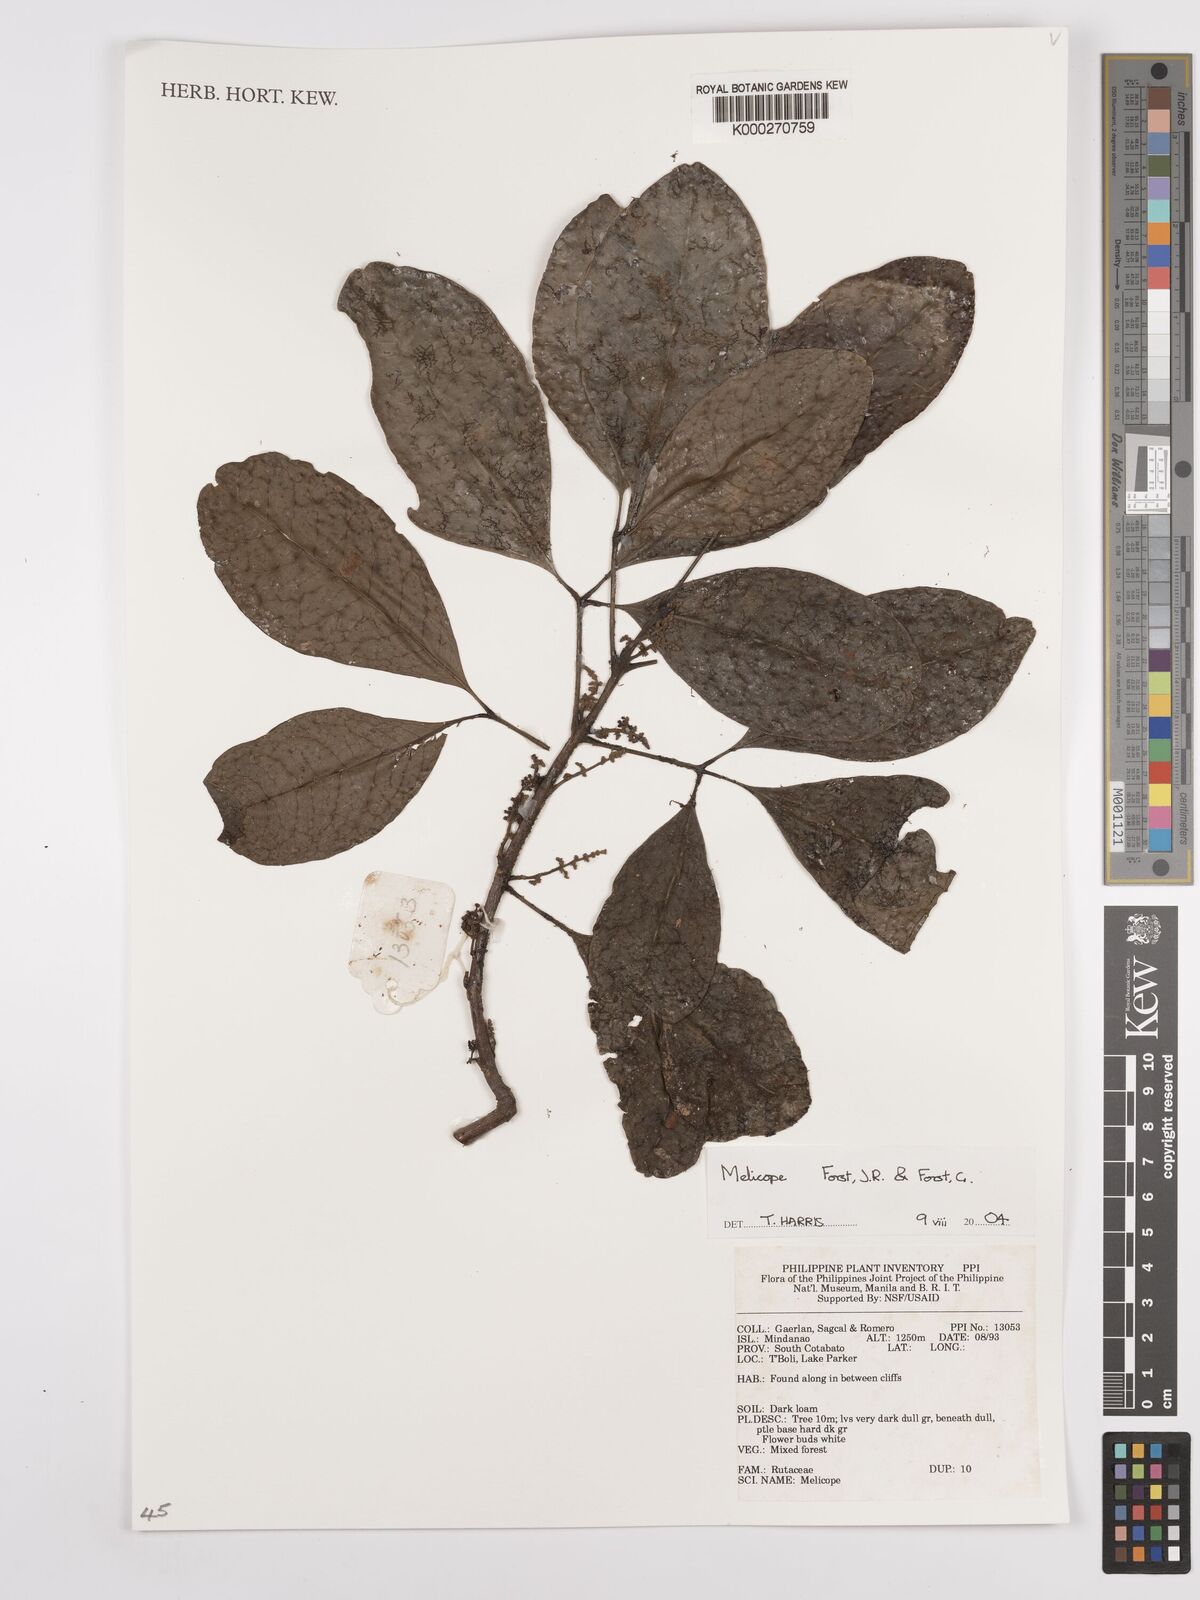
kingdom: Plantae
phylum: Tracheophyta
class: Magnoliopsida
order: Sapindales
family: Rutaceae
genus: Melicope
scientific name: Melicope
